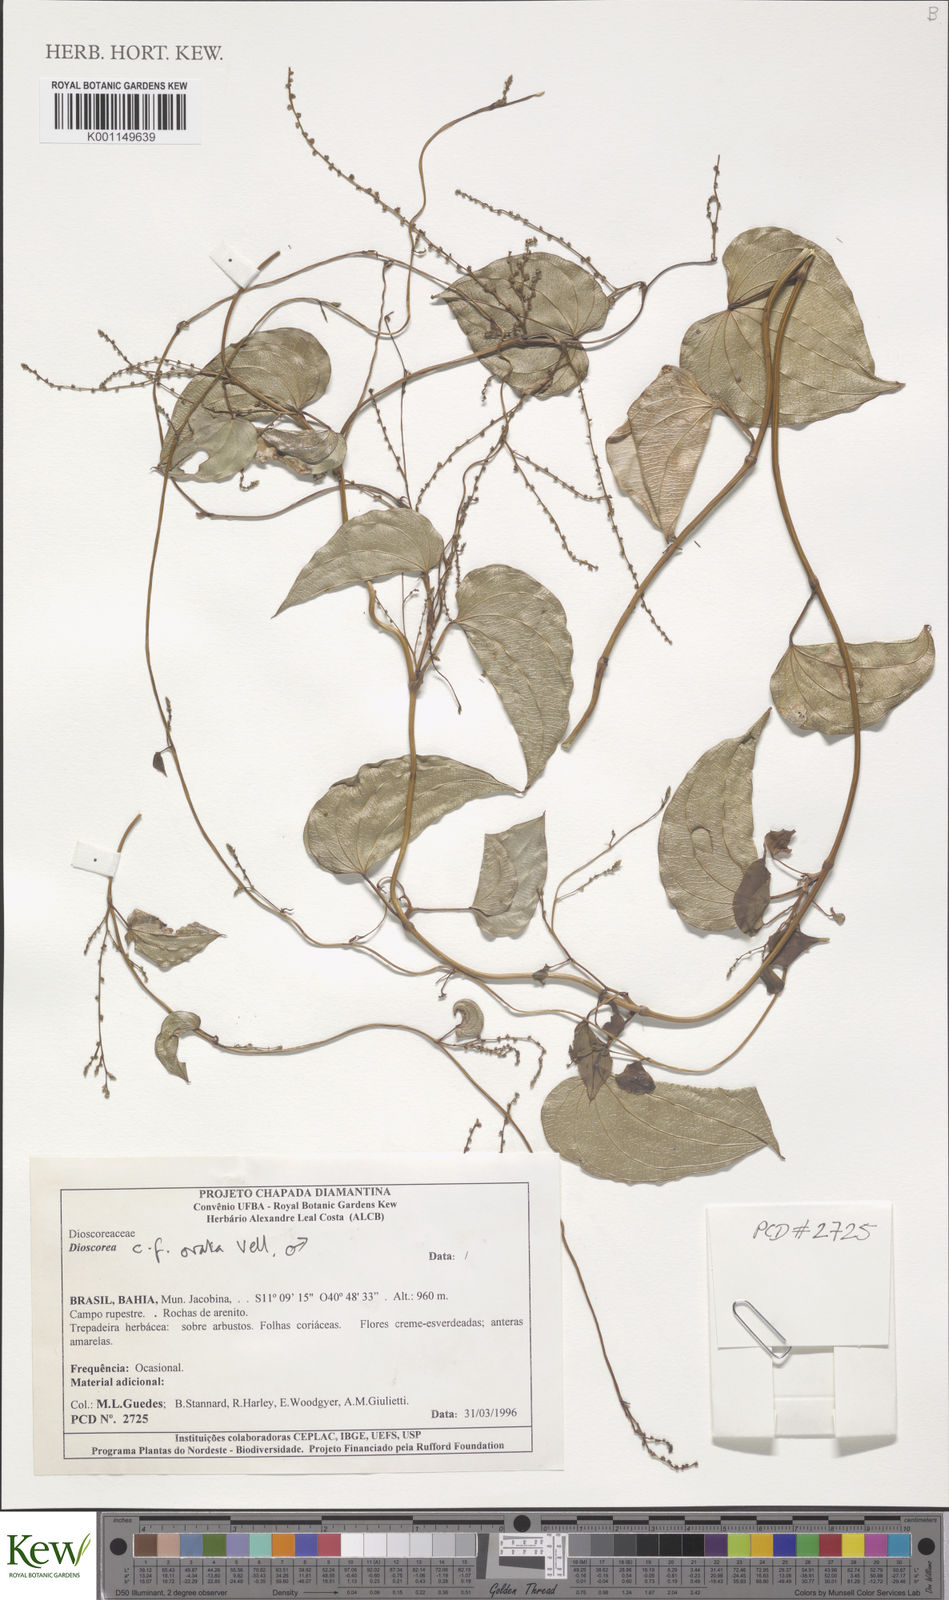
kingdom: Plantae
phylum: Tracheophyta
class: Liliopsida
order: Dioscoreales
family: Dioscoreaceae
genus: Dioscorea
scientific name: Dioscorea sincorensis
